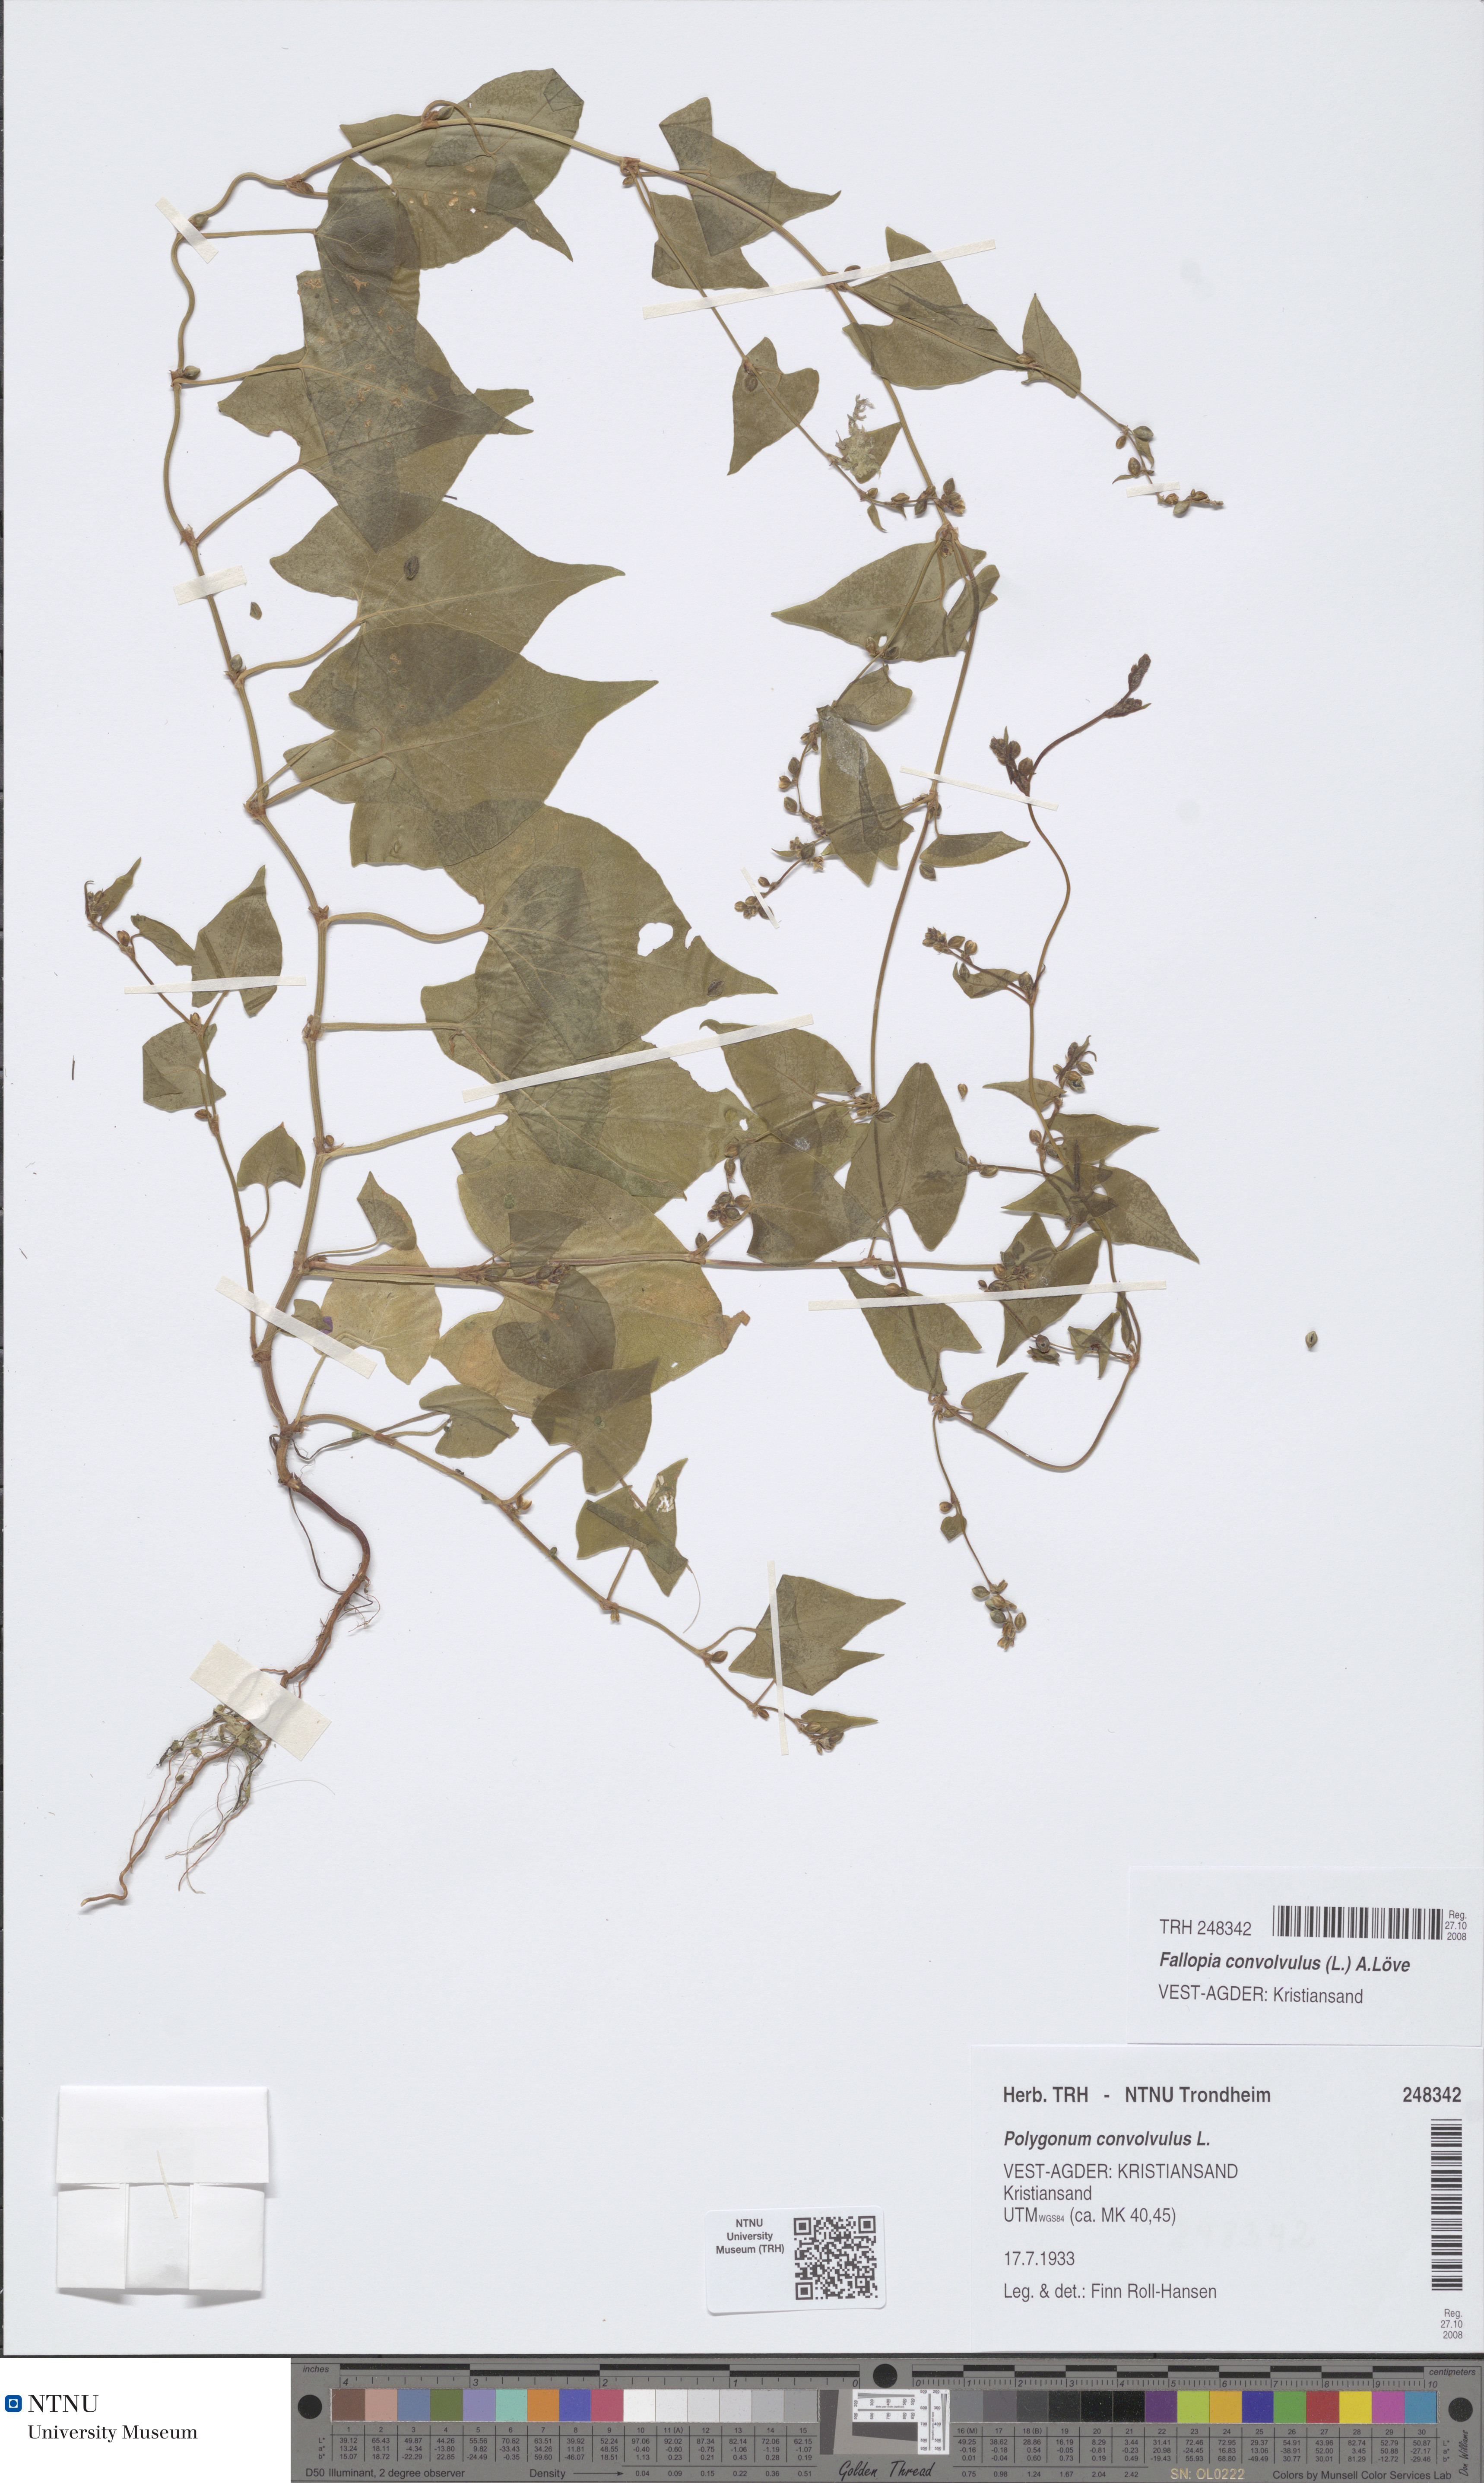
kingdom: Plantae
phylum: Tracheophyta
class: Magnoliopsida
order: Caryophyllales
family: Polygonaceae
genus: Fallopia
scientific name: Fallopia convolvulus
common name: Black bindweed
